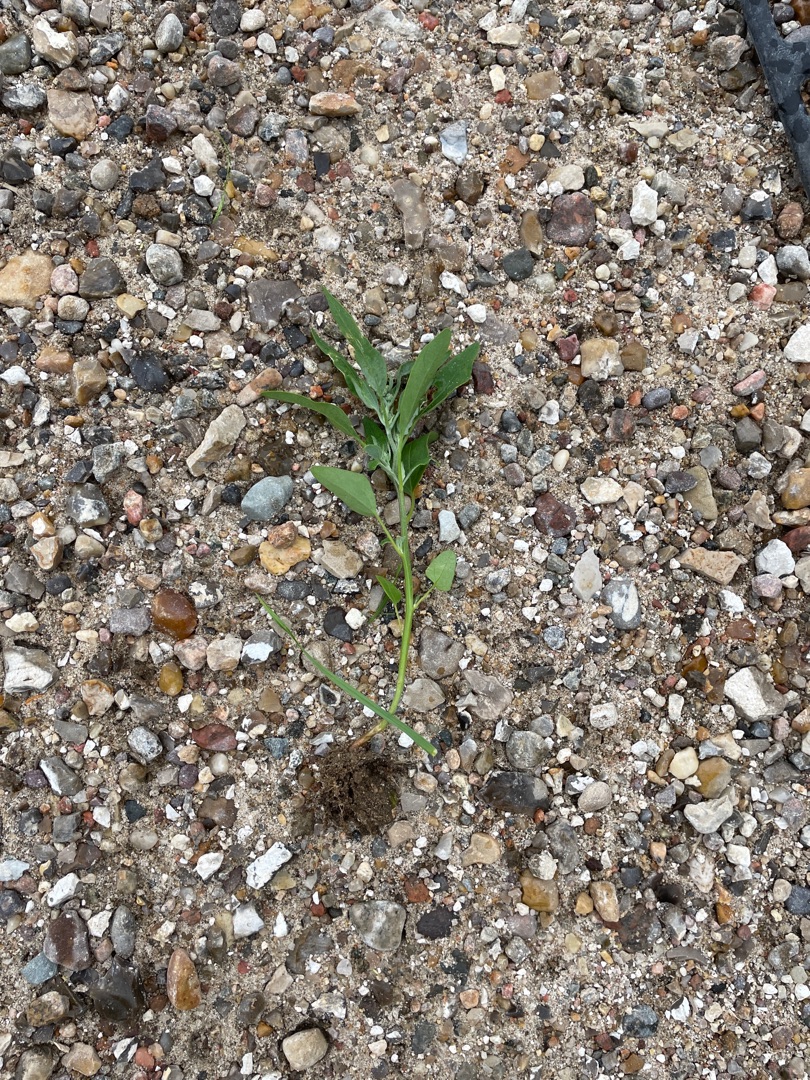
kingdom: Plantae
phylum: Tracheophyta
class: Magnoliopsida
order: Caryophyllales
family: Amaranthaceae
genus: Chenopodium
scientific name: Chenopodium album
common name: Hvidmelet gåsefod
